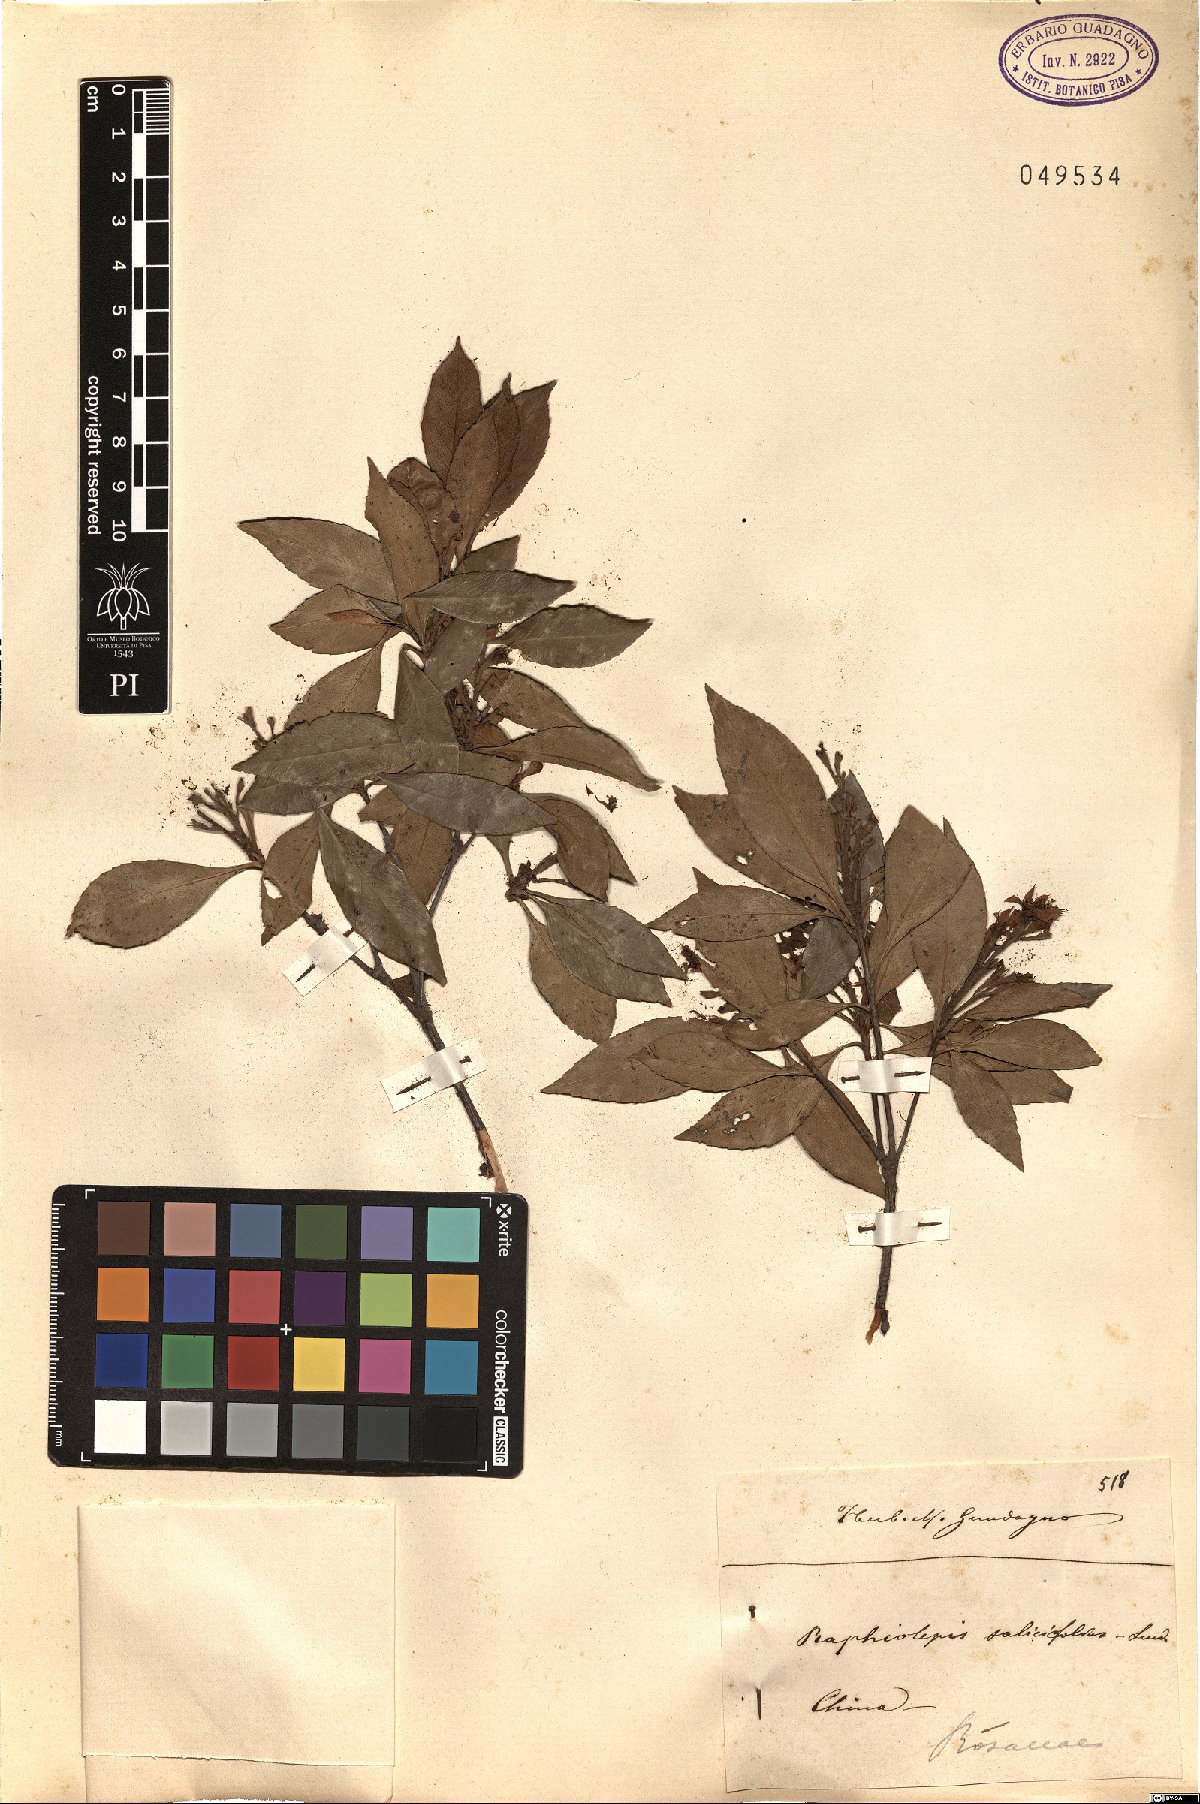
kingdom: Plantae
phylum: Tracheophyta
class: Magnoliopsida
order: Rosales
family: Rosaceae
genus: Rhaphiolepis
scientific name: Rhaphiolepis salicifolia
